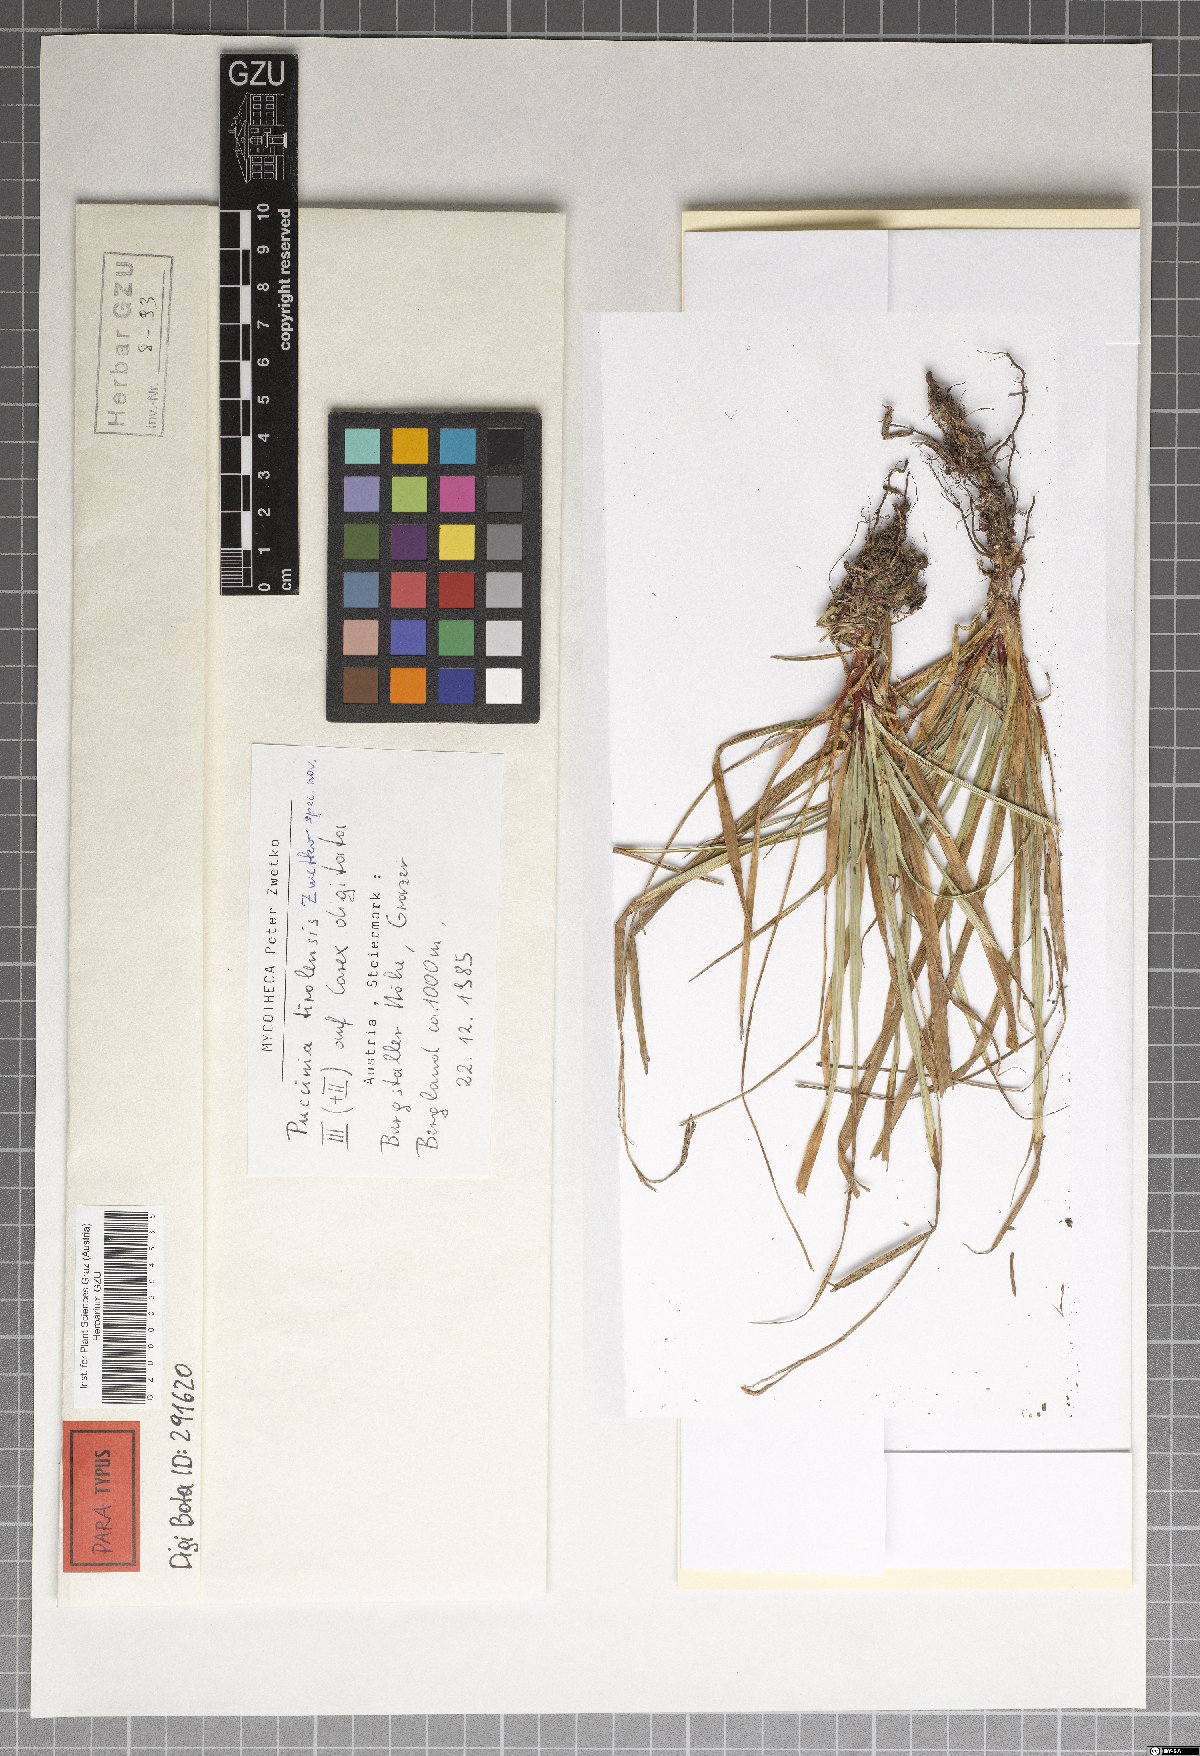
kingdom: Fungi
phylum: Basidiomycota
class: Pucciniomycetes
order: Pucciniales
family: Pucciniaceae
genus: Puccinia
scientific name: Puccinia tirolensis
